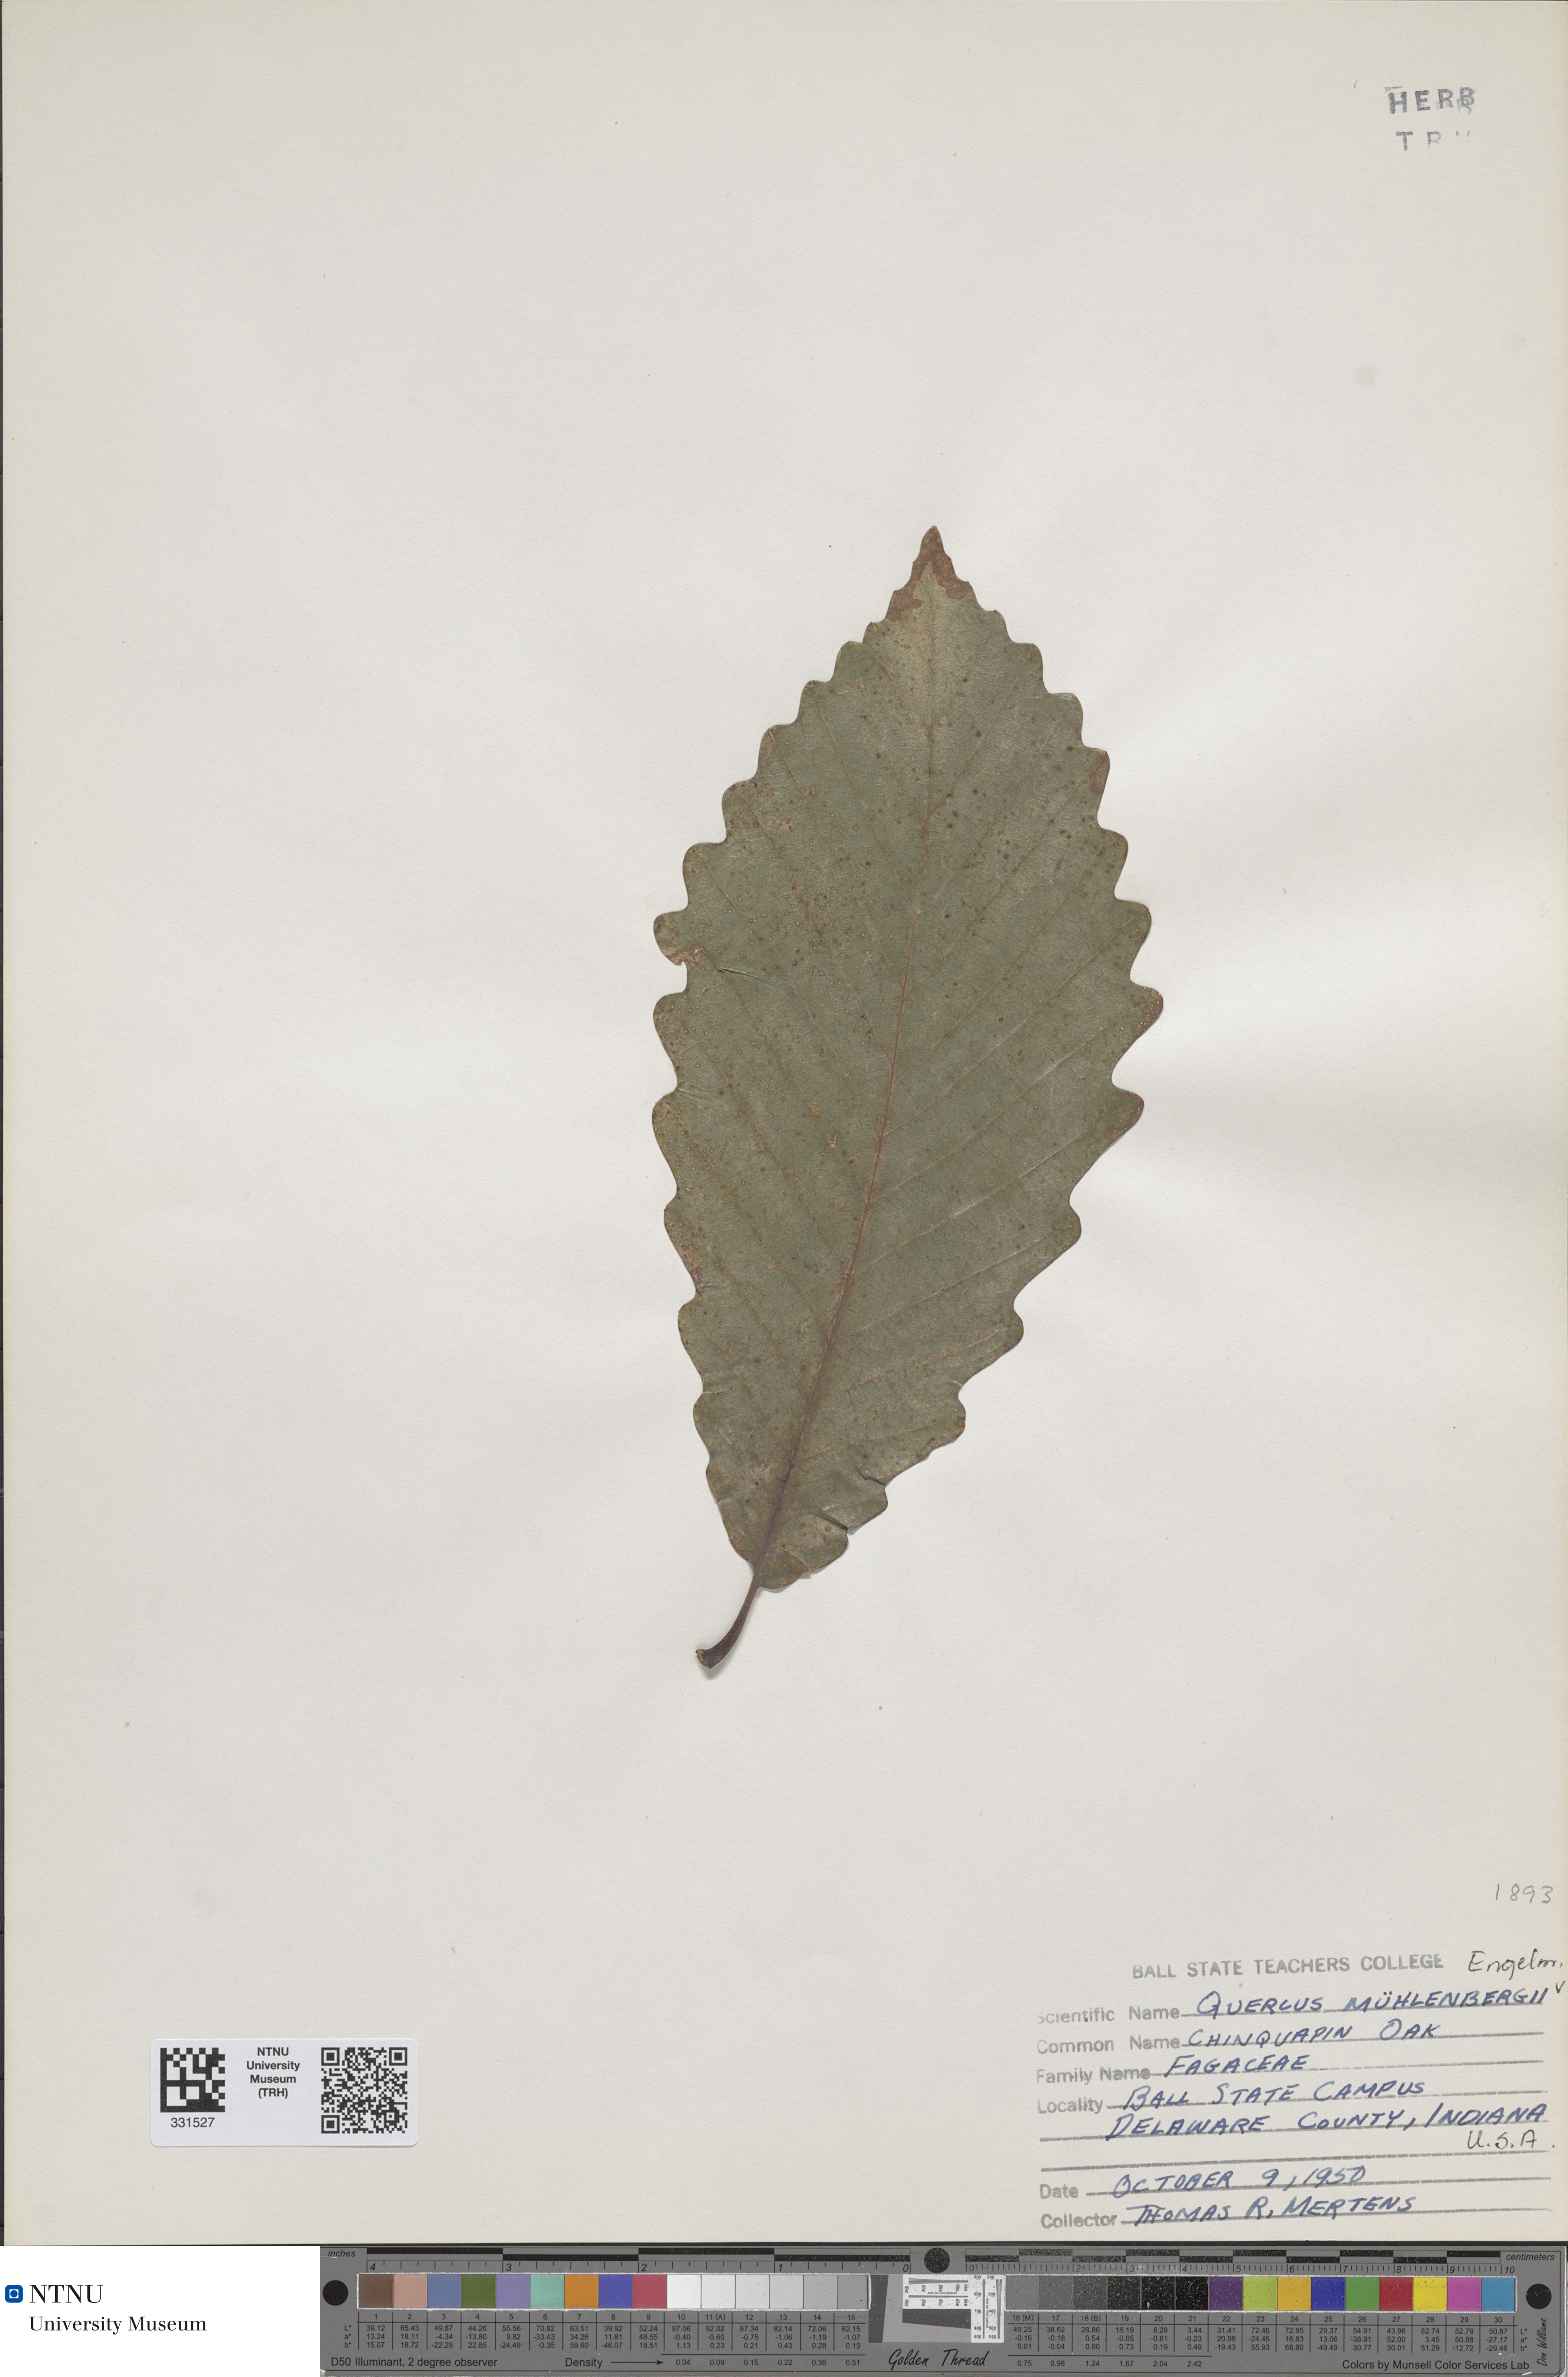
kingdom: Plantae
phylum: Tracheophyta
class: Magnoliopsida
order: Fagales
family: Fagaceae
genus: Quercus
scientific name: Quercus muehlenbergii
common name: Chinkapin oak
